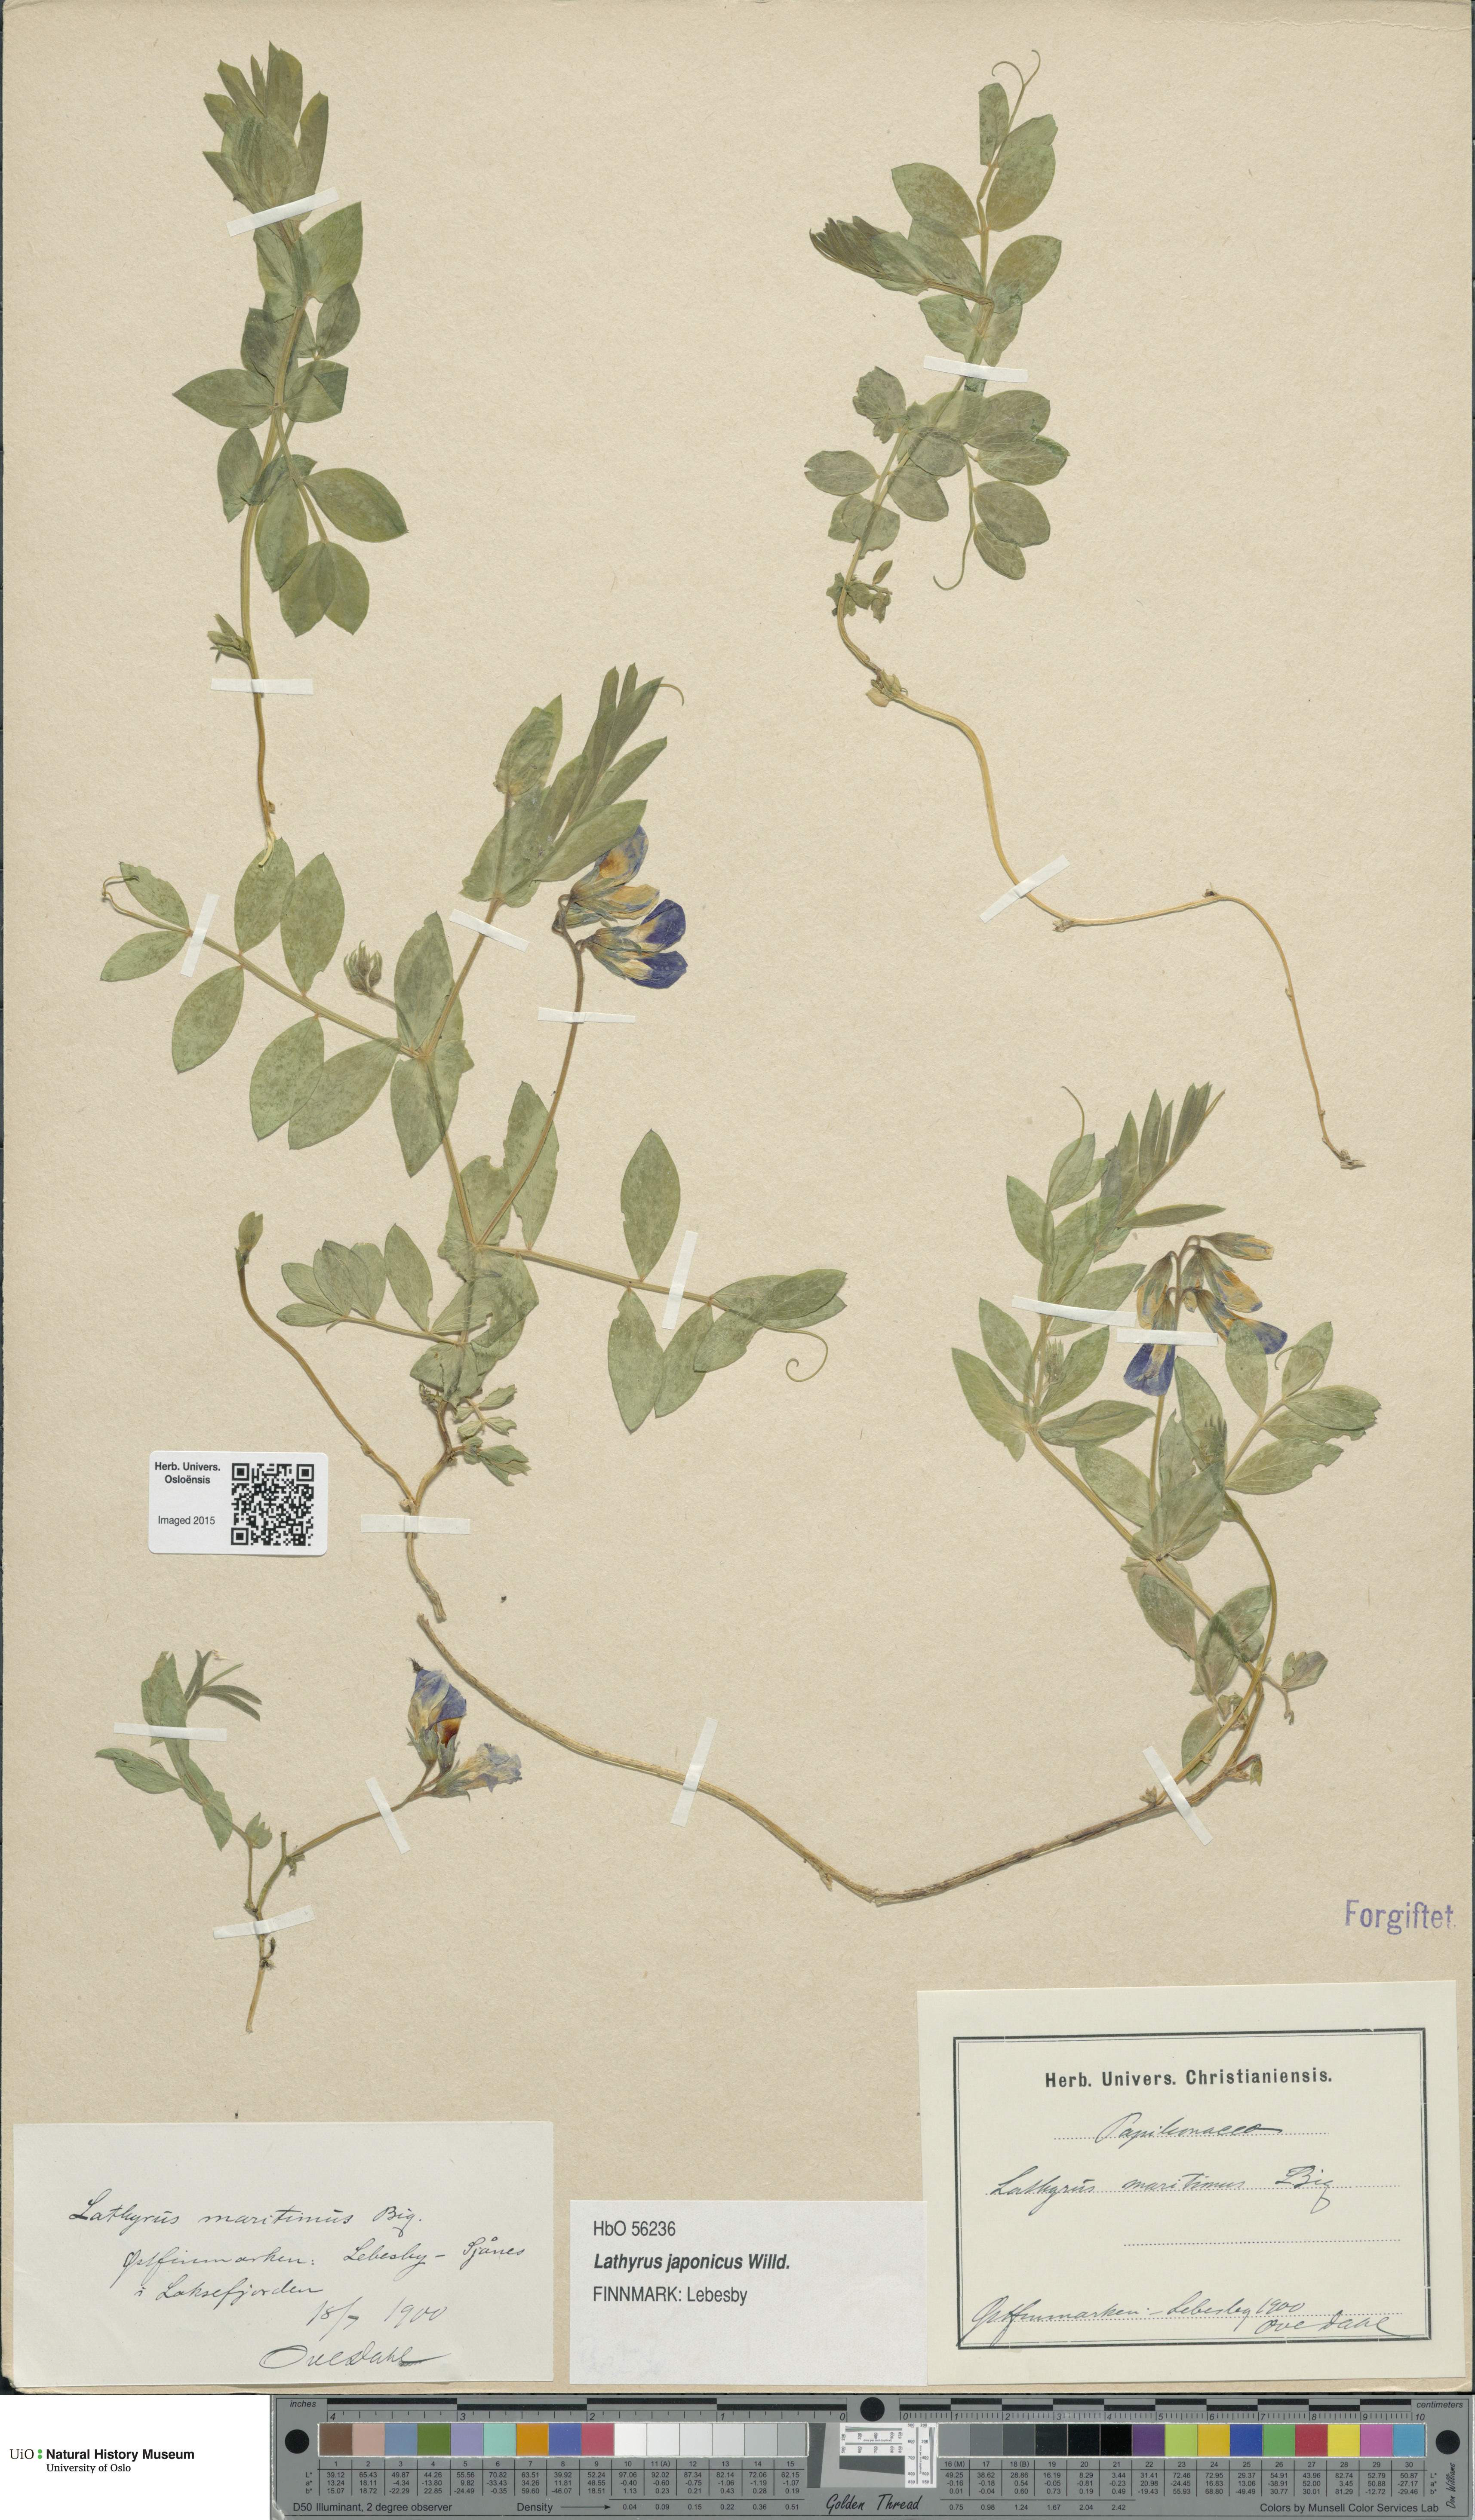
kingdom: Plantae
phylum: Tracheophyta
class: Magnoliopsida
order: Fabales
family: Fabaceae
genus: Lathyrus
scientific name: Lathyrus
